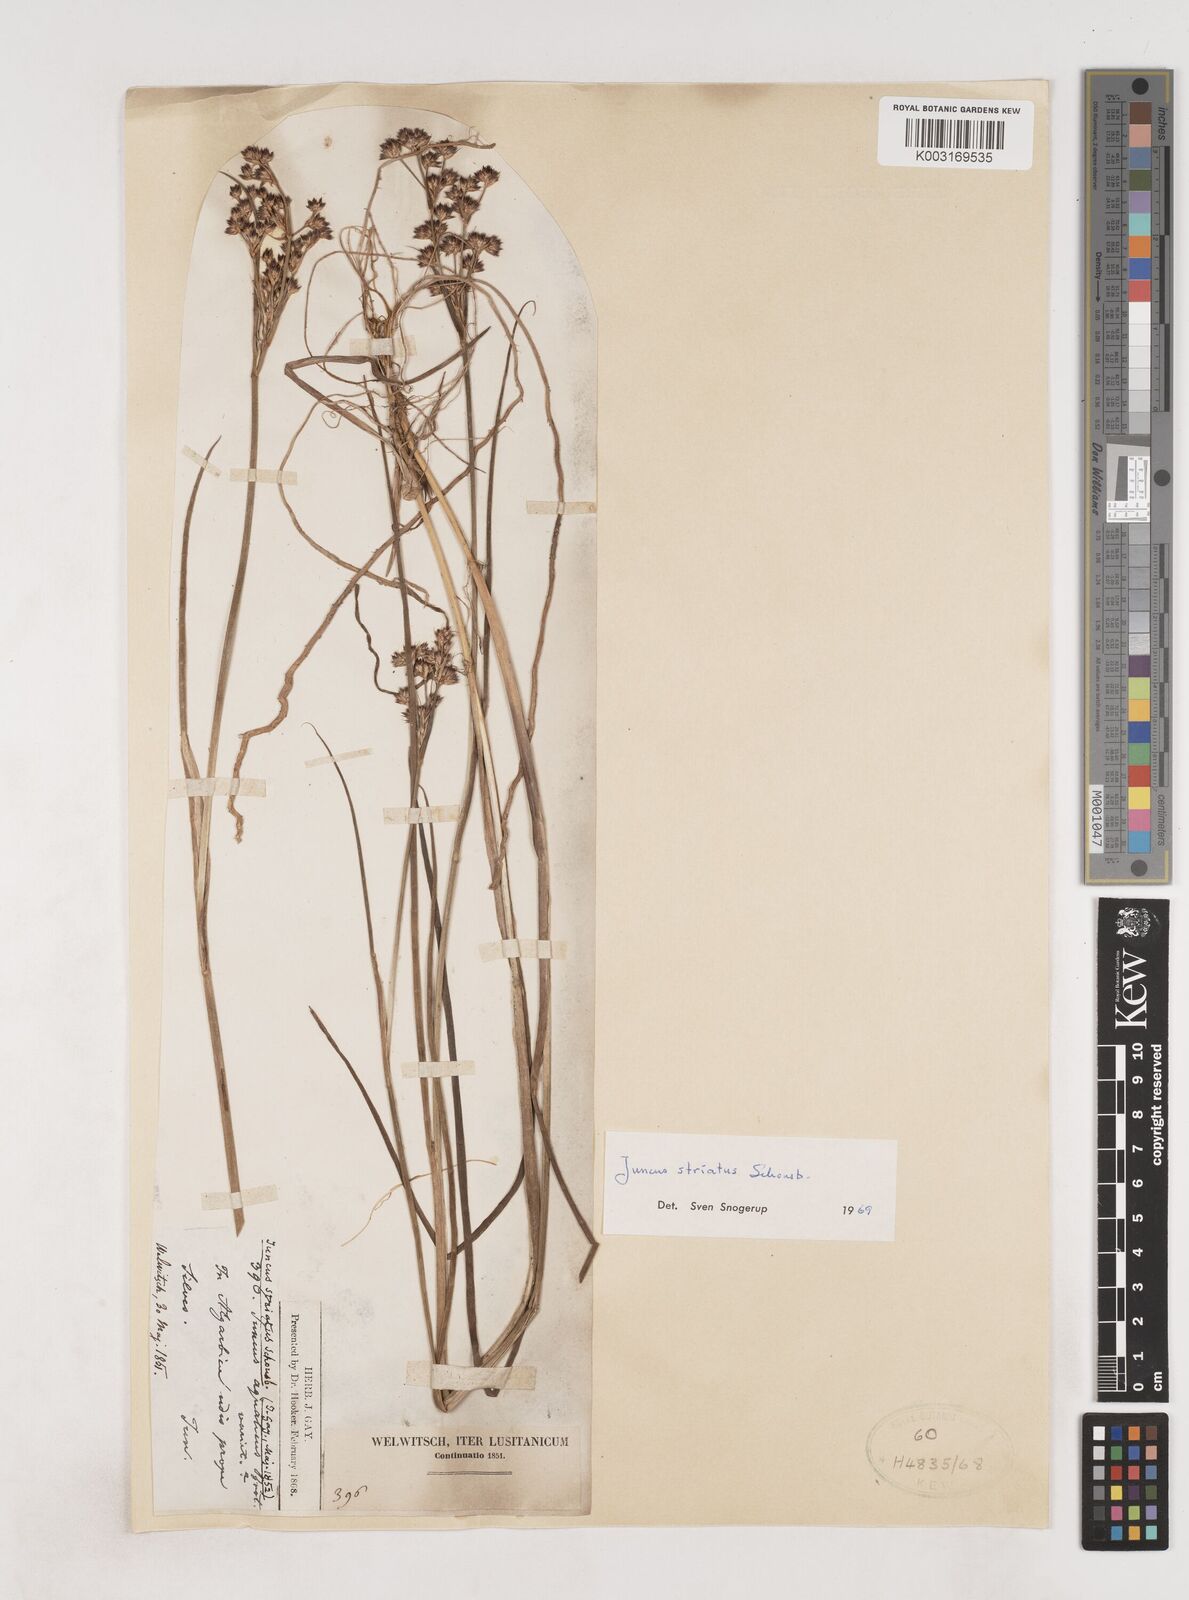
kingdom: Plantae
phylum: Tracheophyta
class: Liliopsida
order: Poales
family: Juncaceae
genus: Juncus
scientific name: Juncus striatus
